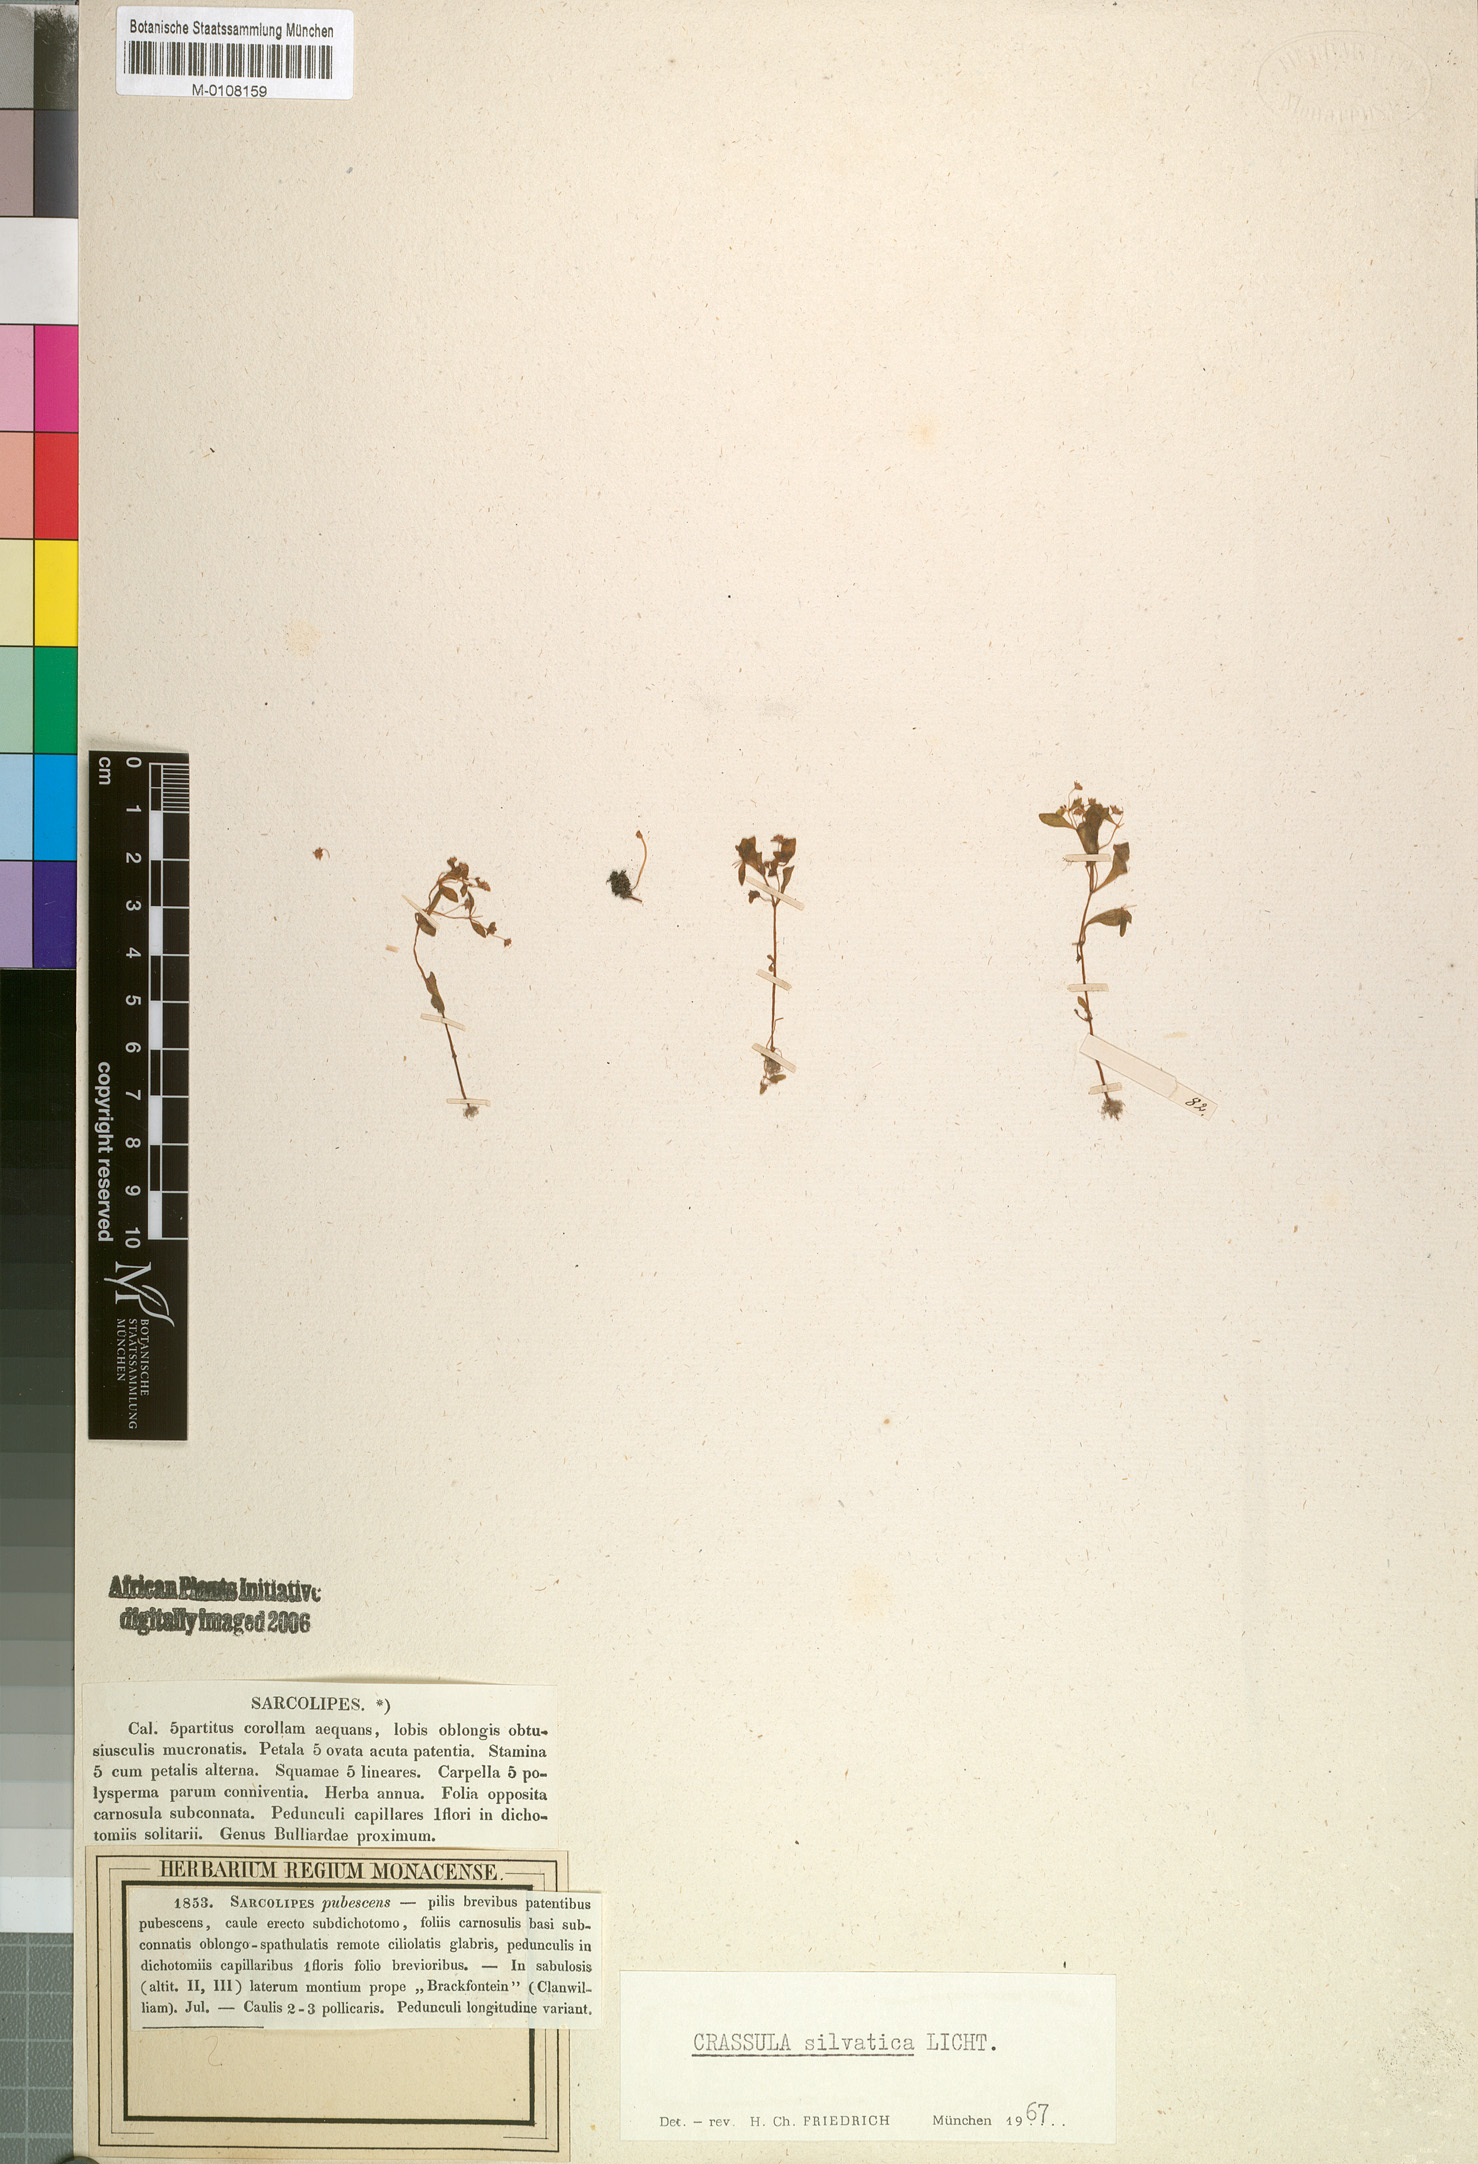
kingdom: Plantae
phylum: Tracheophyta
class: Magnoliopsida
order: Saxifragales
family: Crassulaceae
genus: Crassula
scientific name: Crassula strigosa
